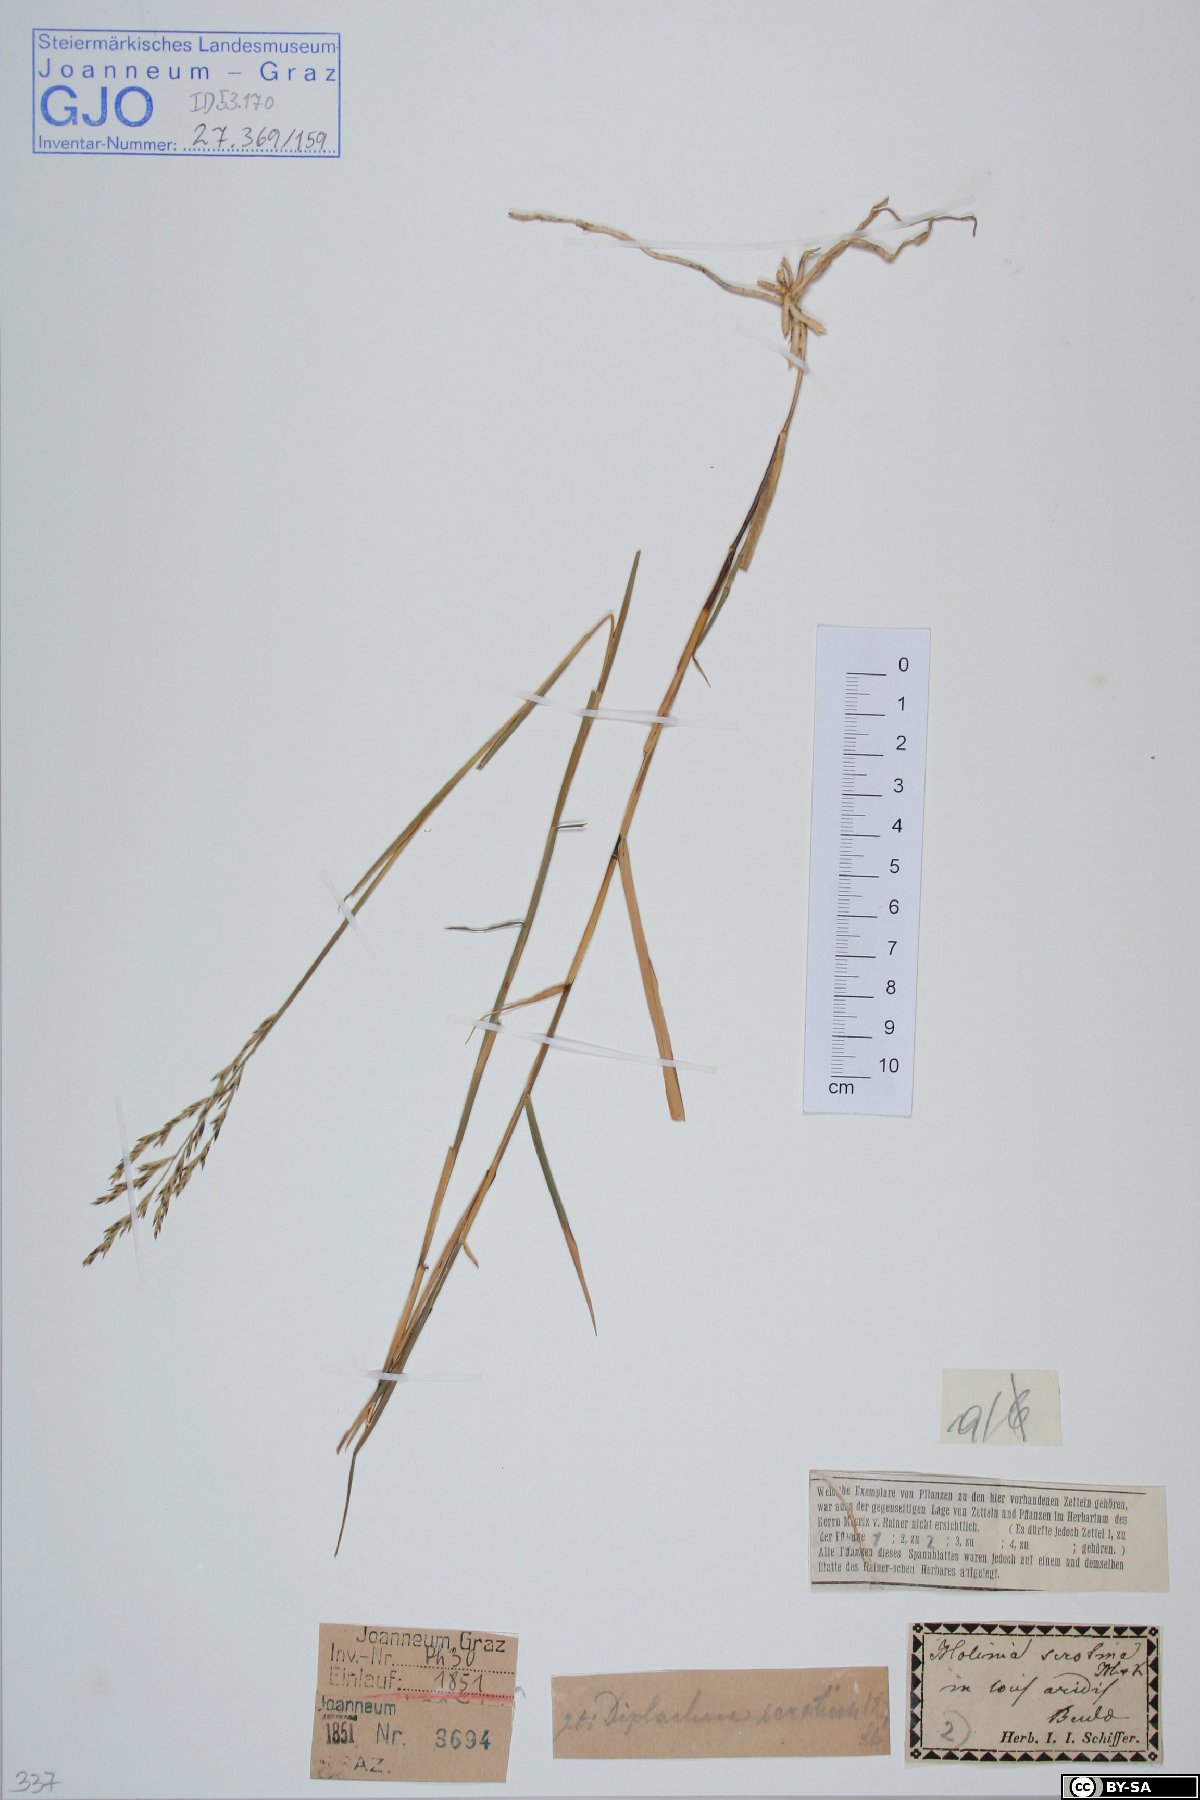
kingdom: Plantae
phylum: Tracheophyta
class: Liliopsida
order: Poales
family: Poaceae
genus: Cleistogenes
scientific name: Cleistogenes serotina
